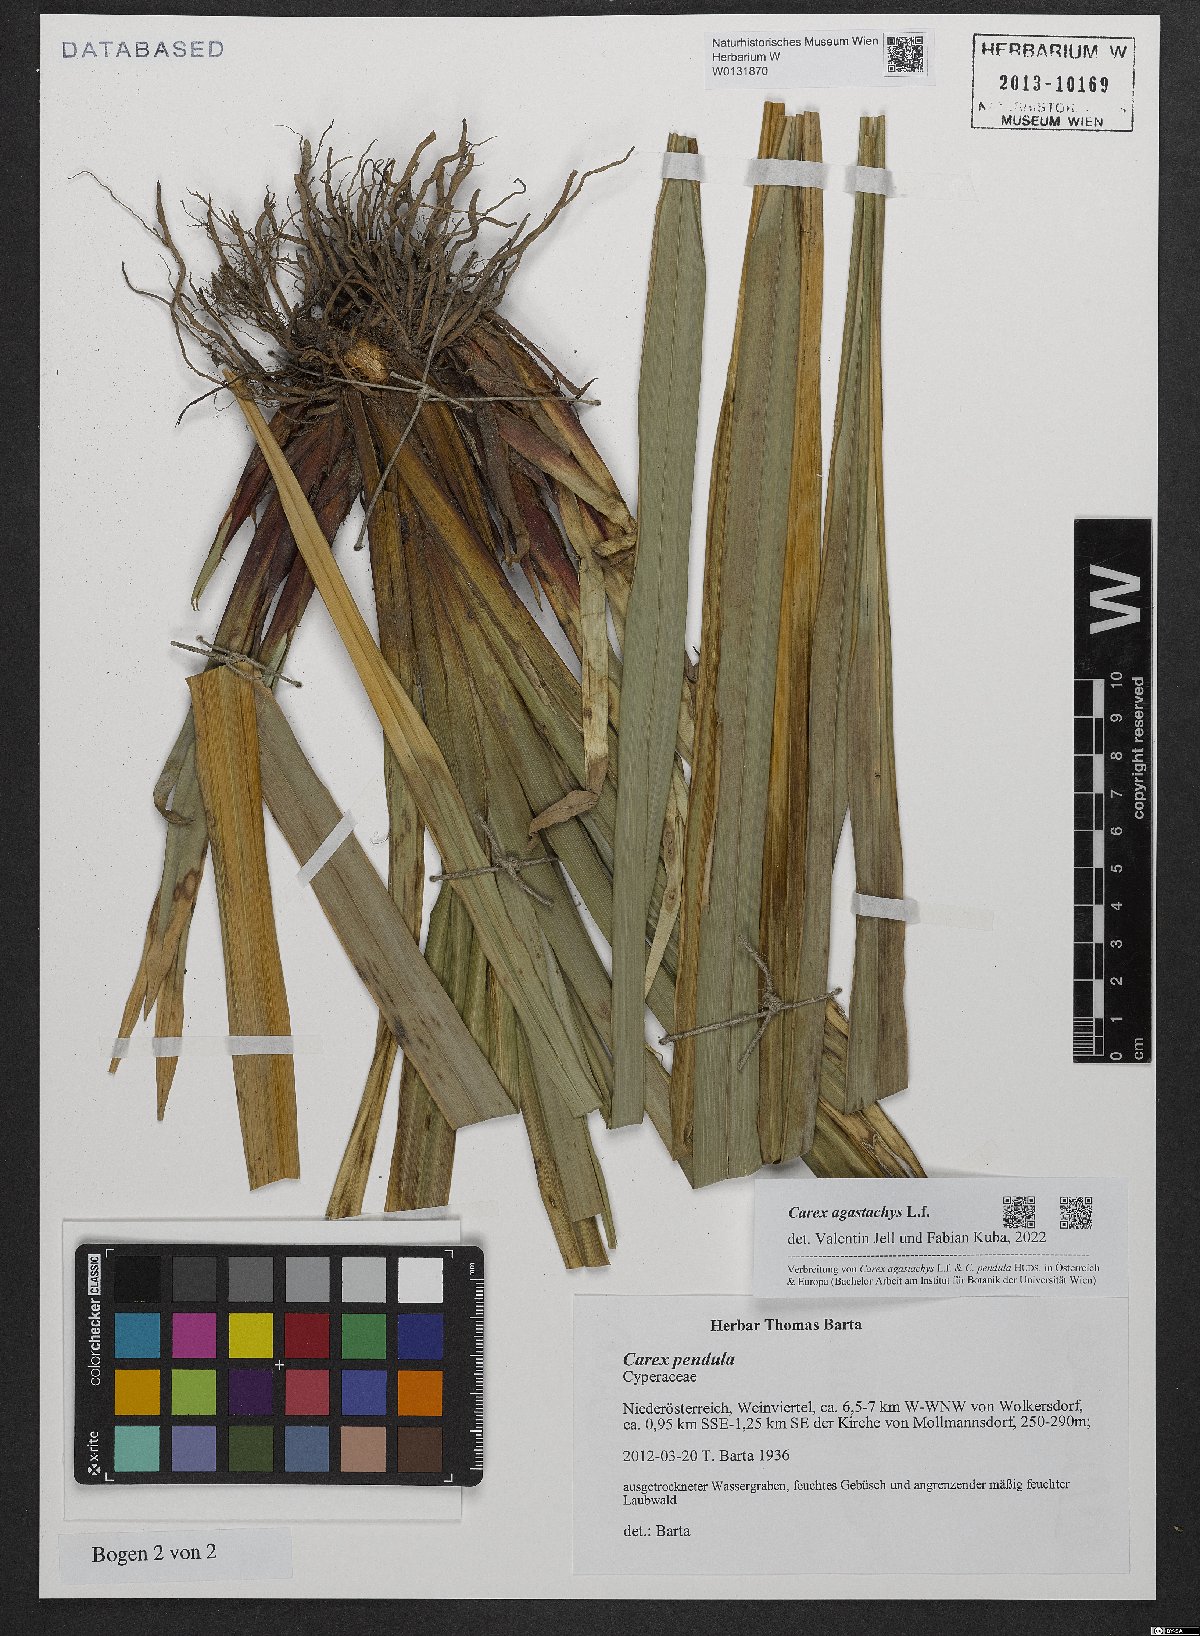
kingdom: Plantae
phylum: Tracheophyta
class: Liliopsida
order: Poales
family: Cyperaceae
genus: Carex
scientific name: Carex agastachys
